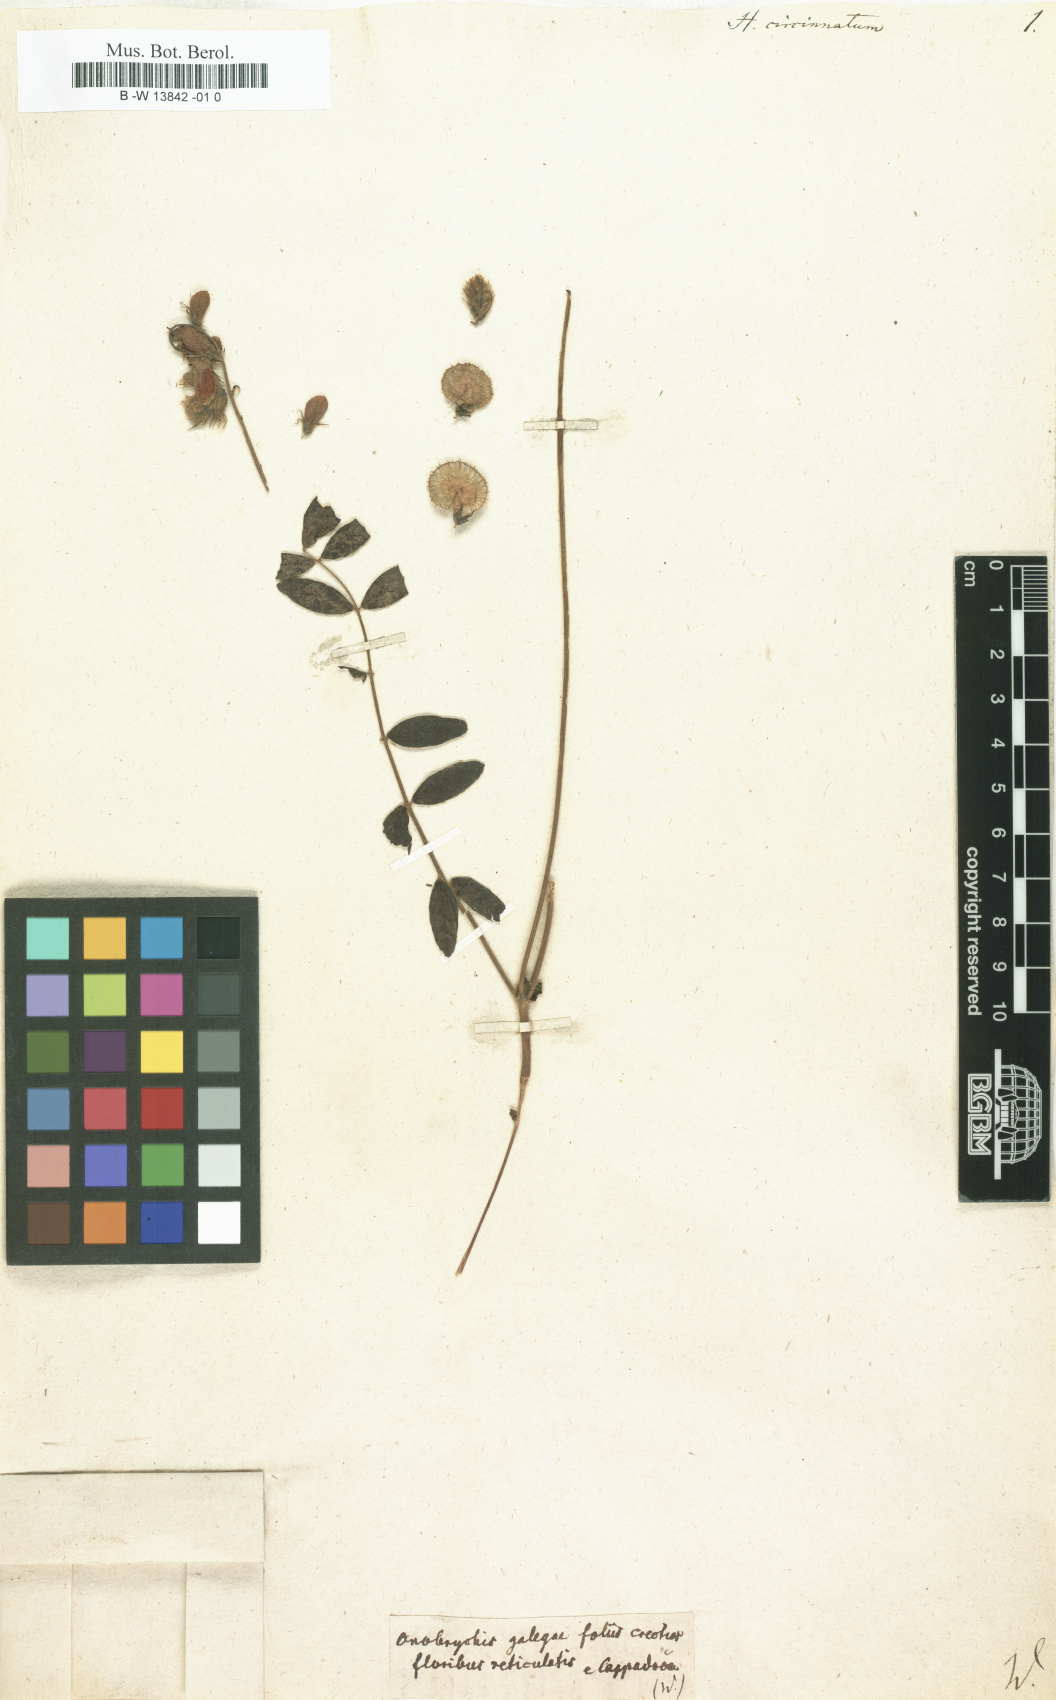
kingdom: Plantae
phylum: Tracheophyta
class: Magnoliopsida
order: Fabales
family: Fabaceae
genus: Hedysarum
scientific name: Hedysarum circinnatum
